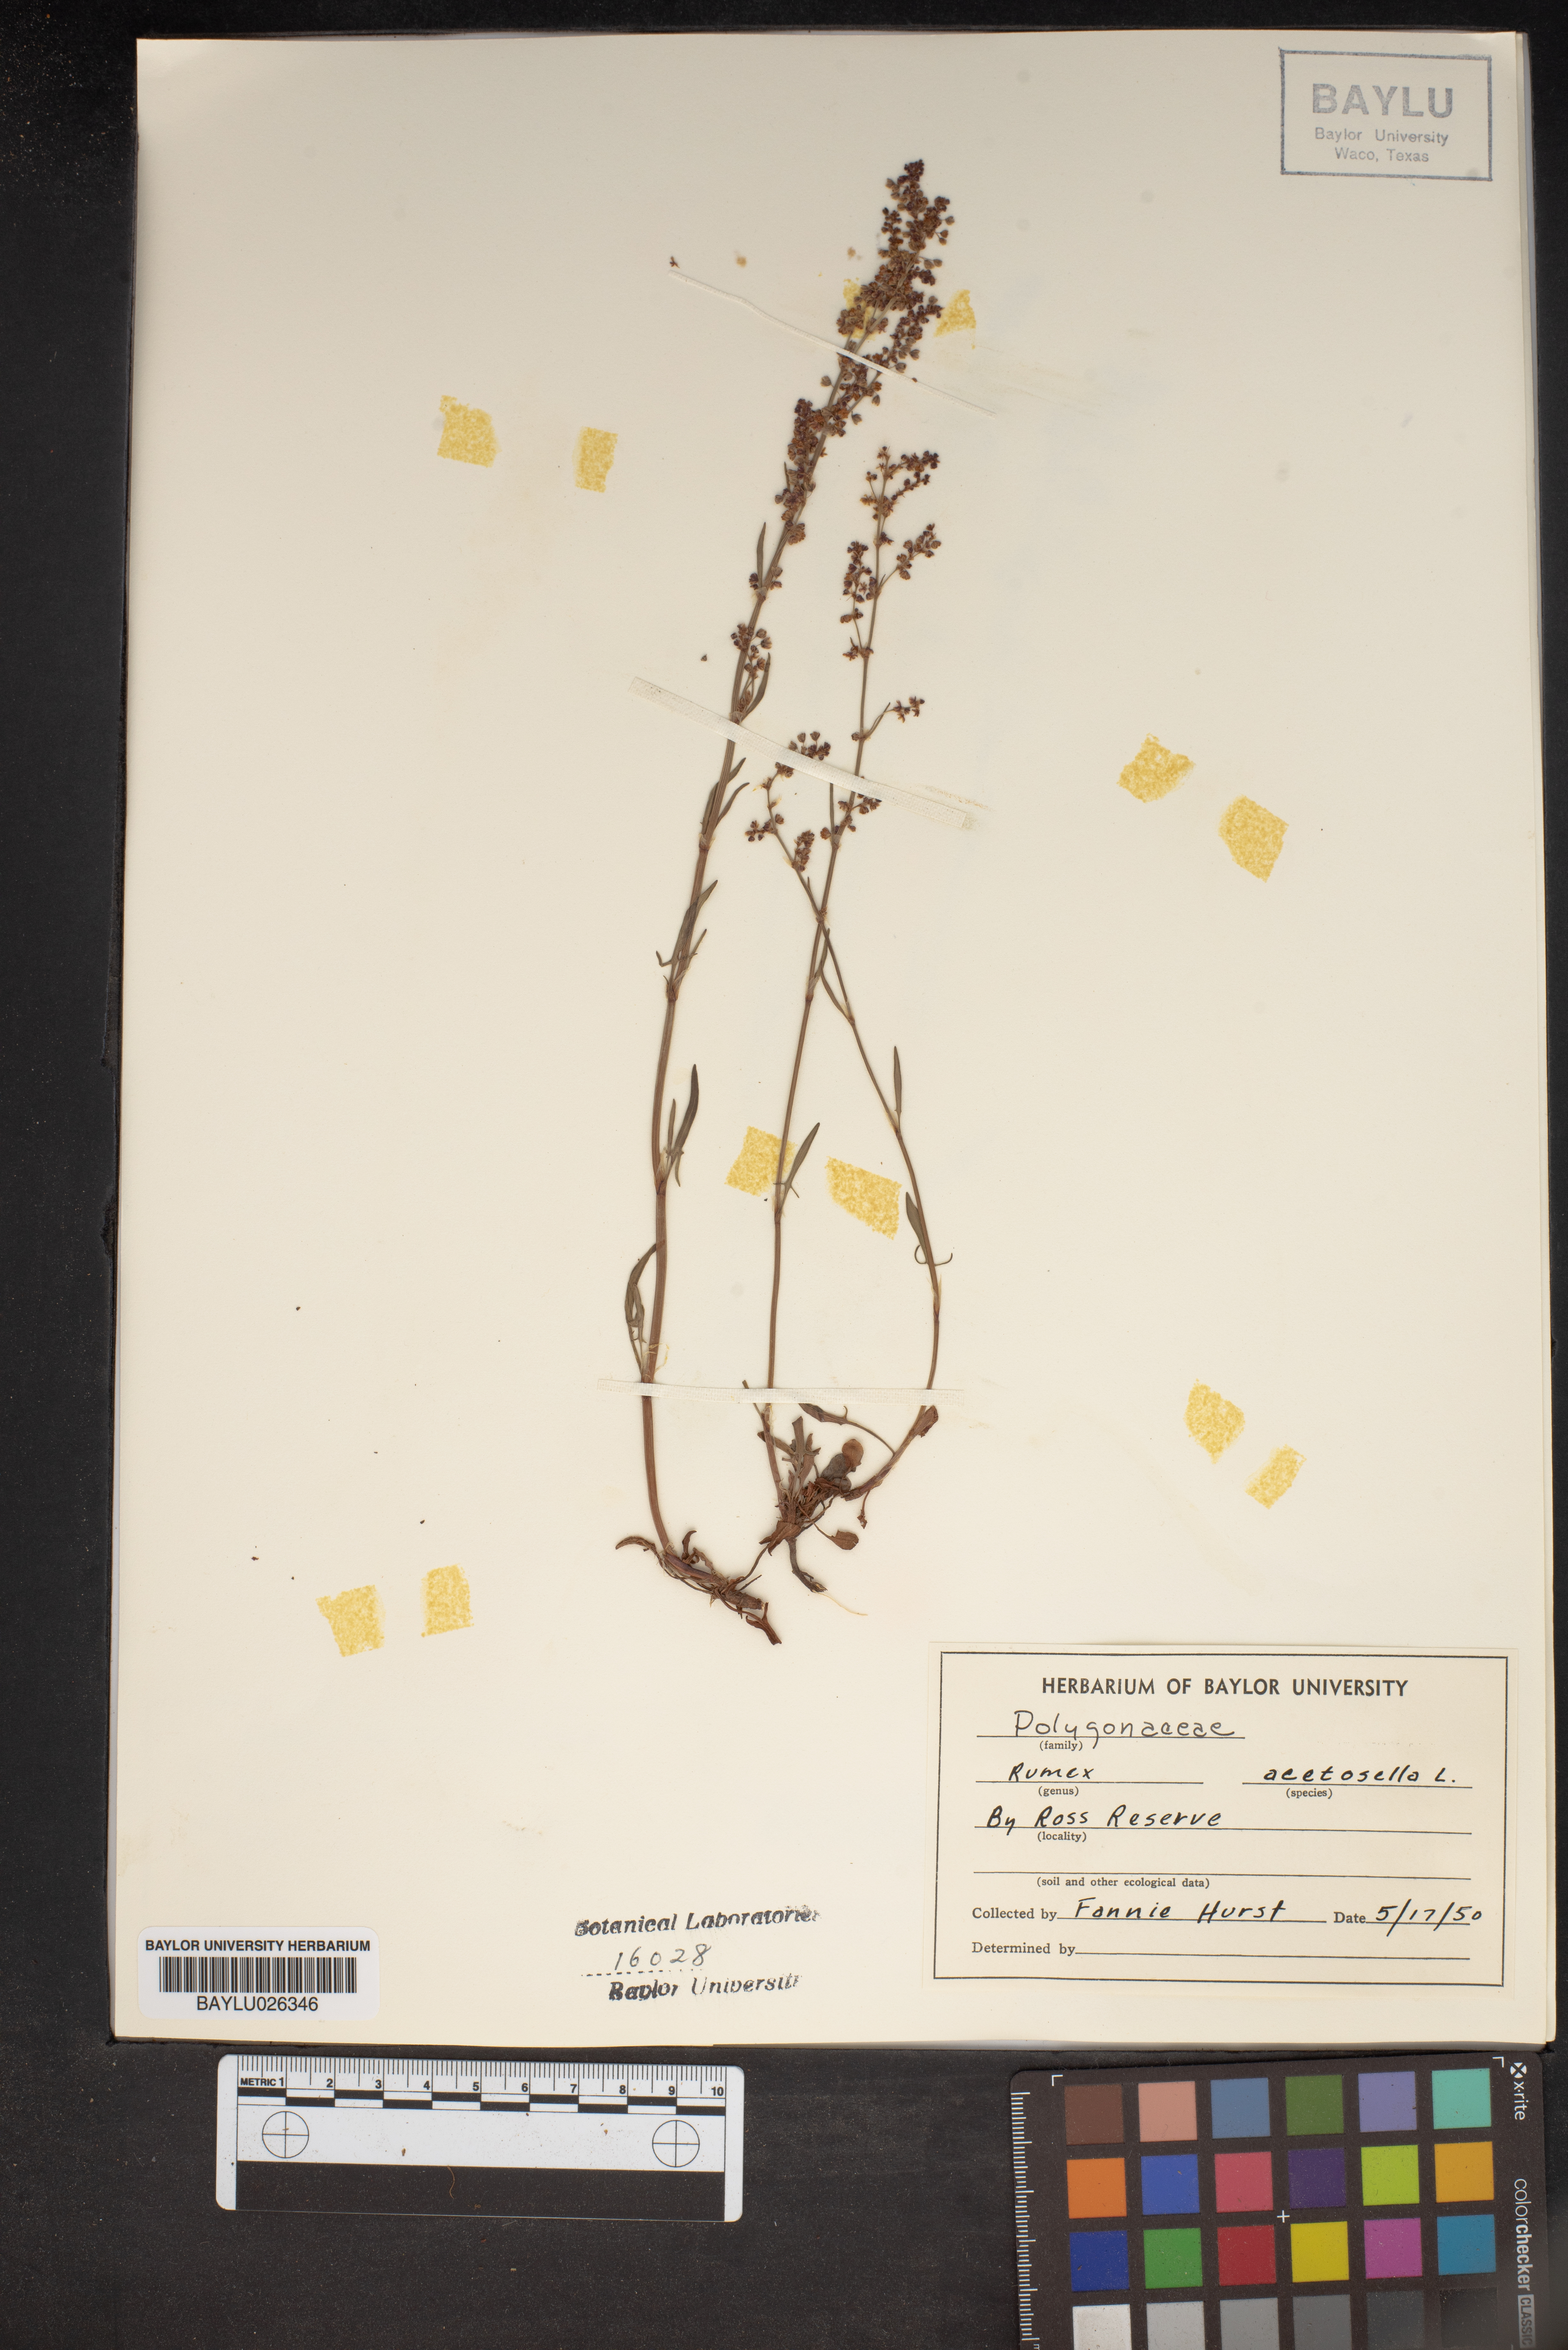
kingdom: Plantae
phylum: Tracheophyta
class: Magnoliopsida
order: Caryophyllales
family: Polygonaceae
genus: Rumex
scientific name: Rumex acetosella
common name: Common sheep sorrel
